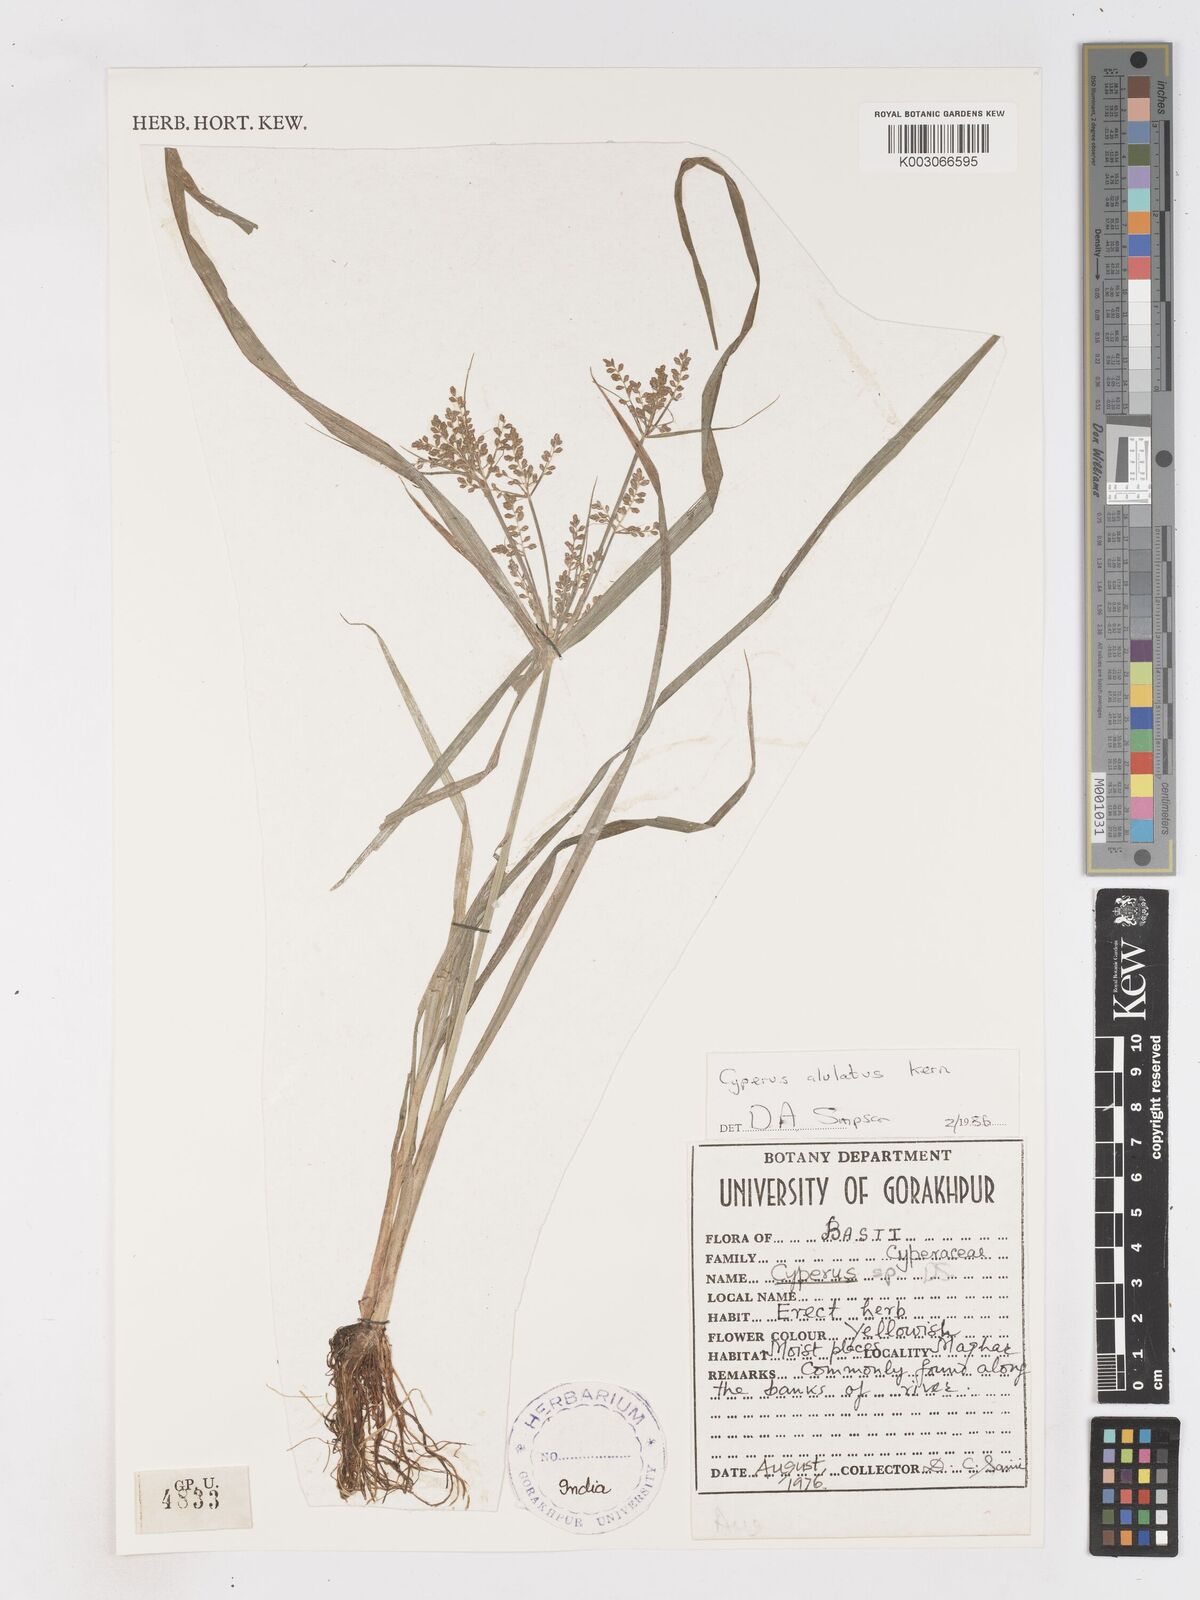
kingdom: Plantae
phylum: Tracheophyta
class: Liliopsida
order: Poales
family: Cyperaceae
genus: Cyperus
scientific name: Cyperus alulatus
